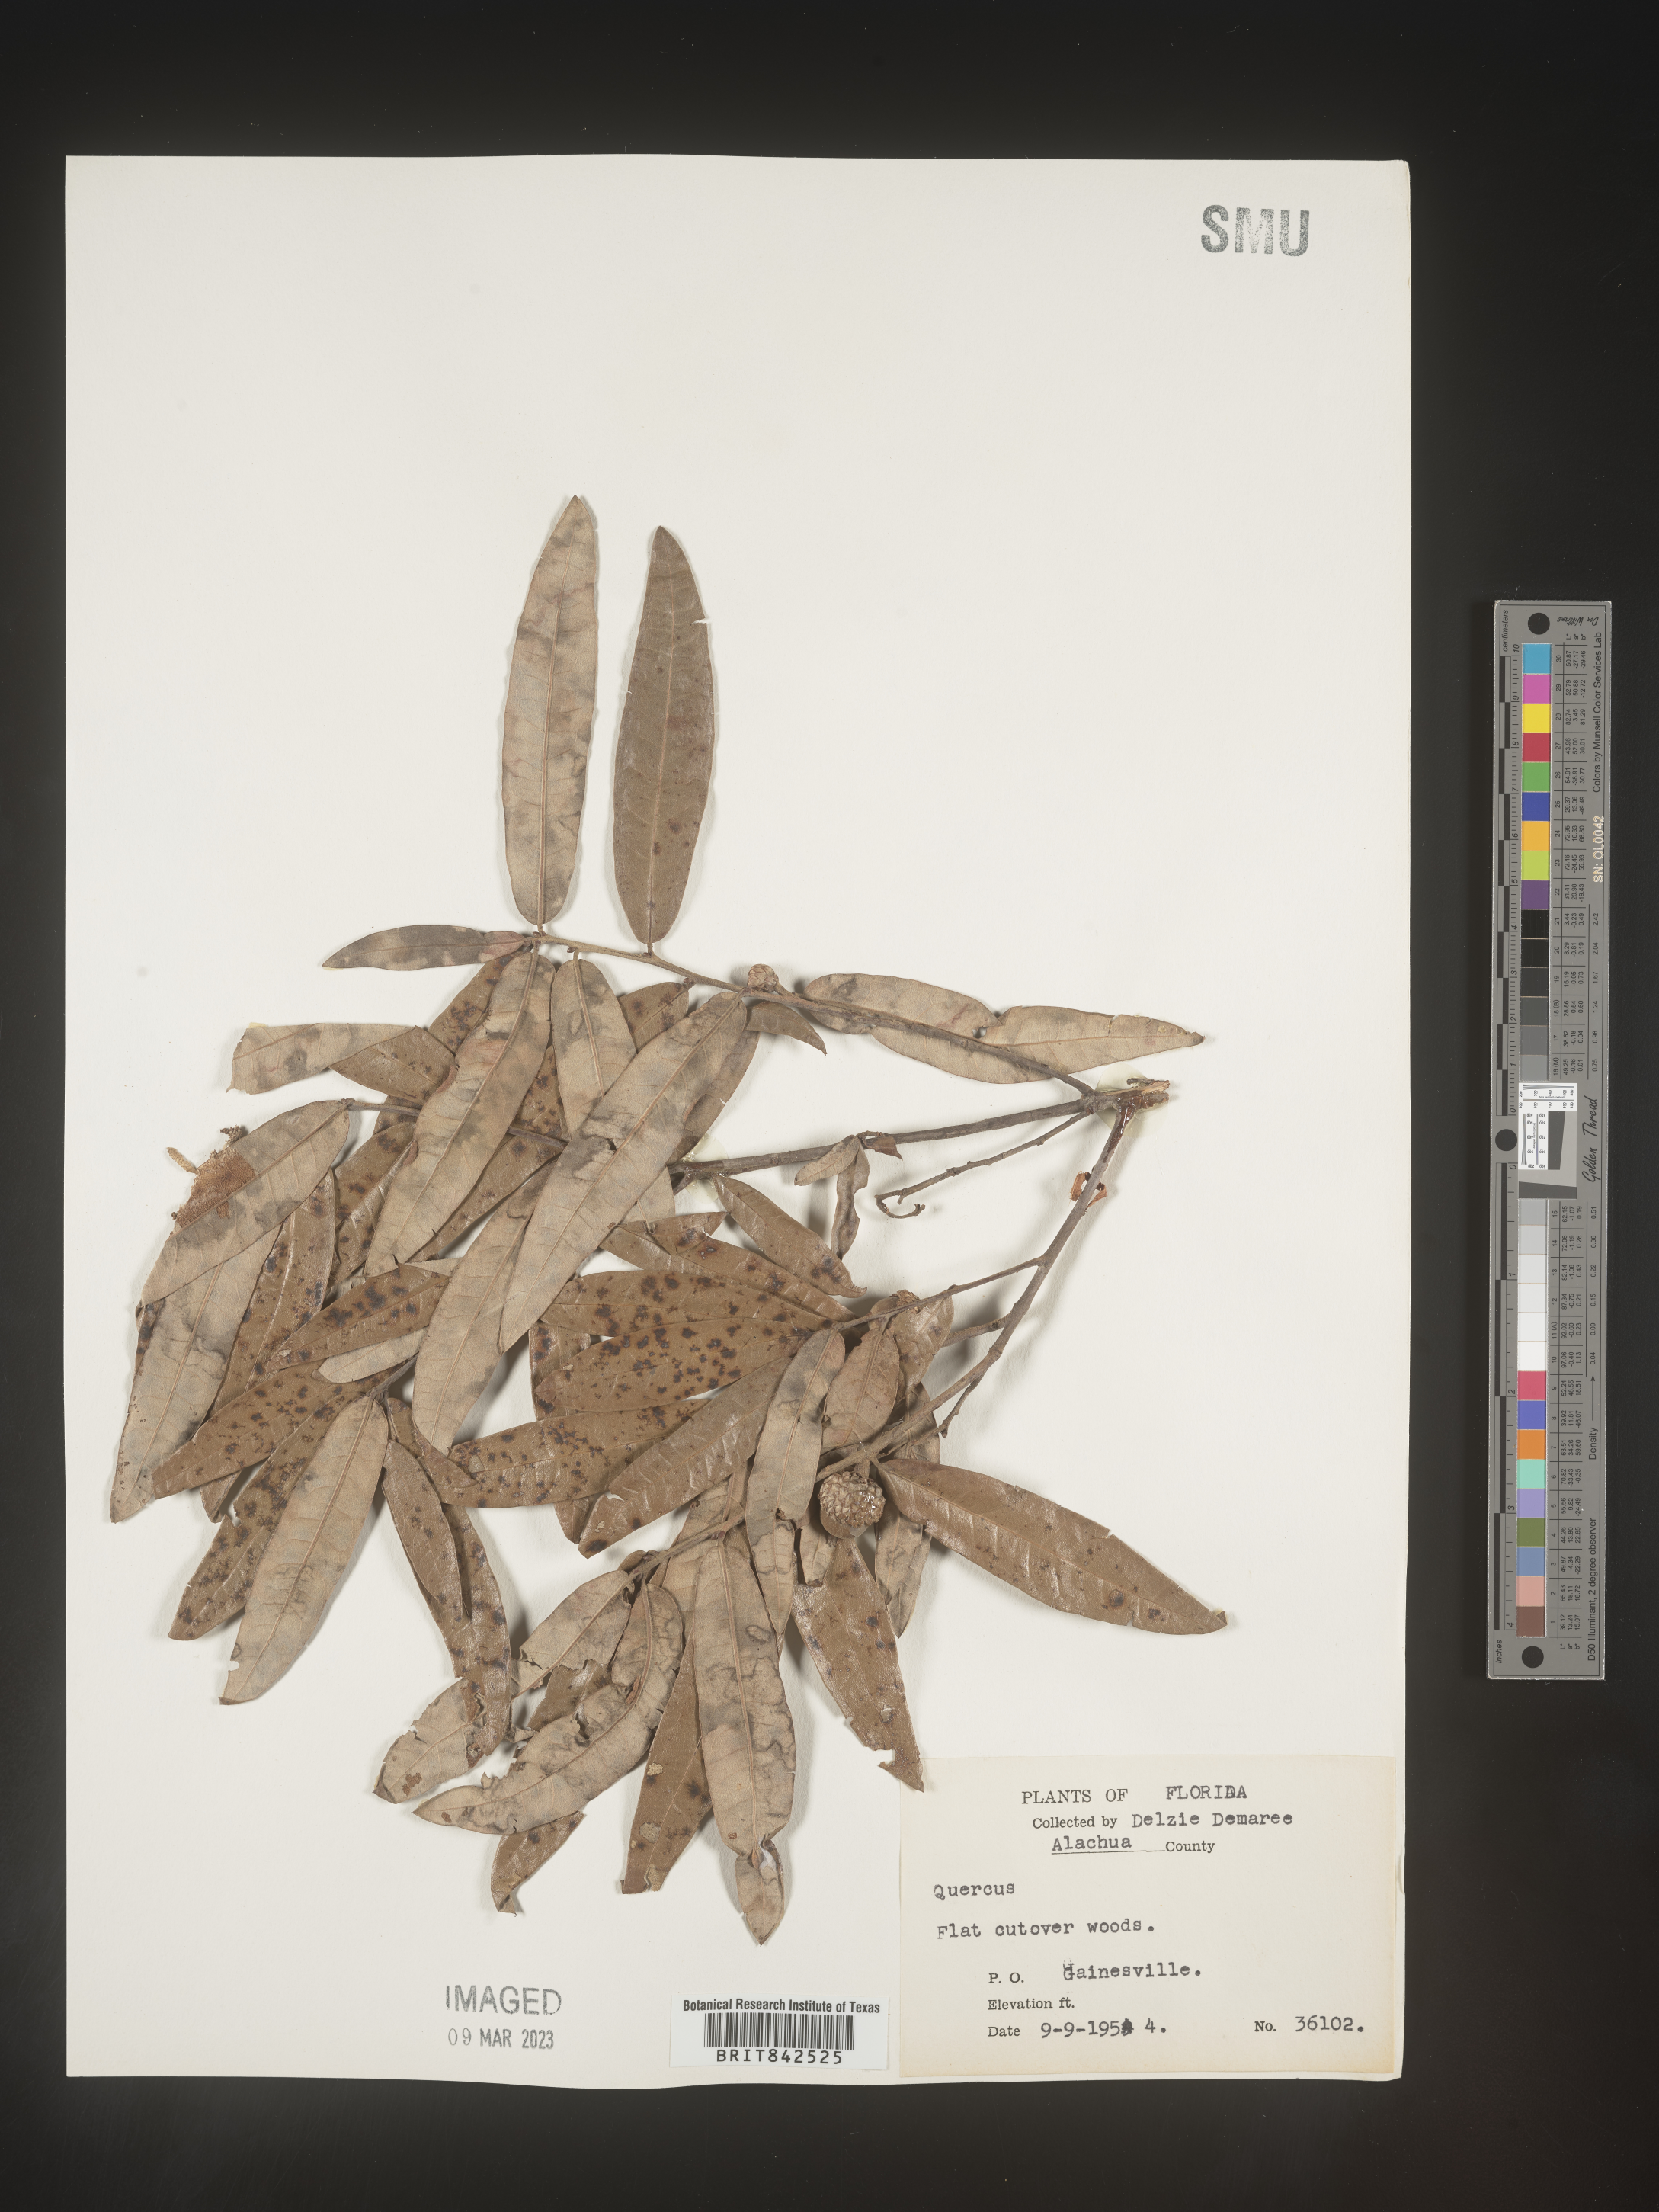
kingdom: Plantae
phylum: Tracheophyta
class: Magnoliopsida
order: Fagales
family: Fagaceae
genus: Quercus
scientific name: Quercus
